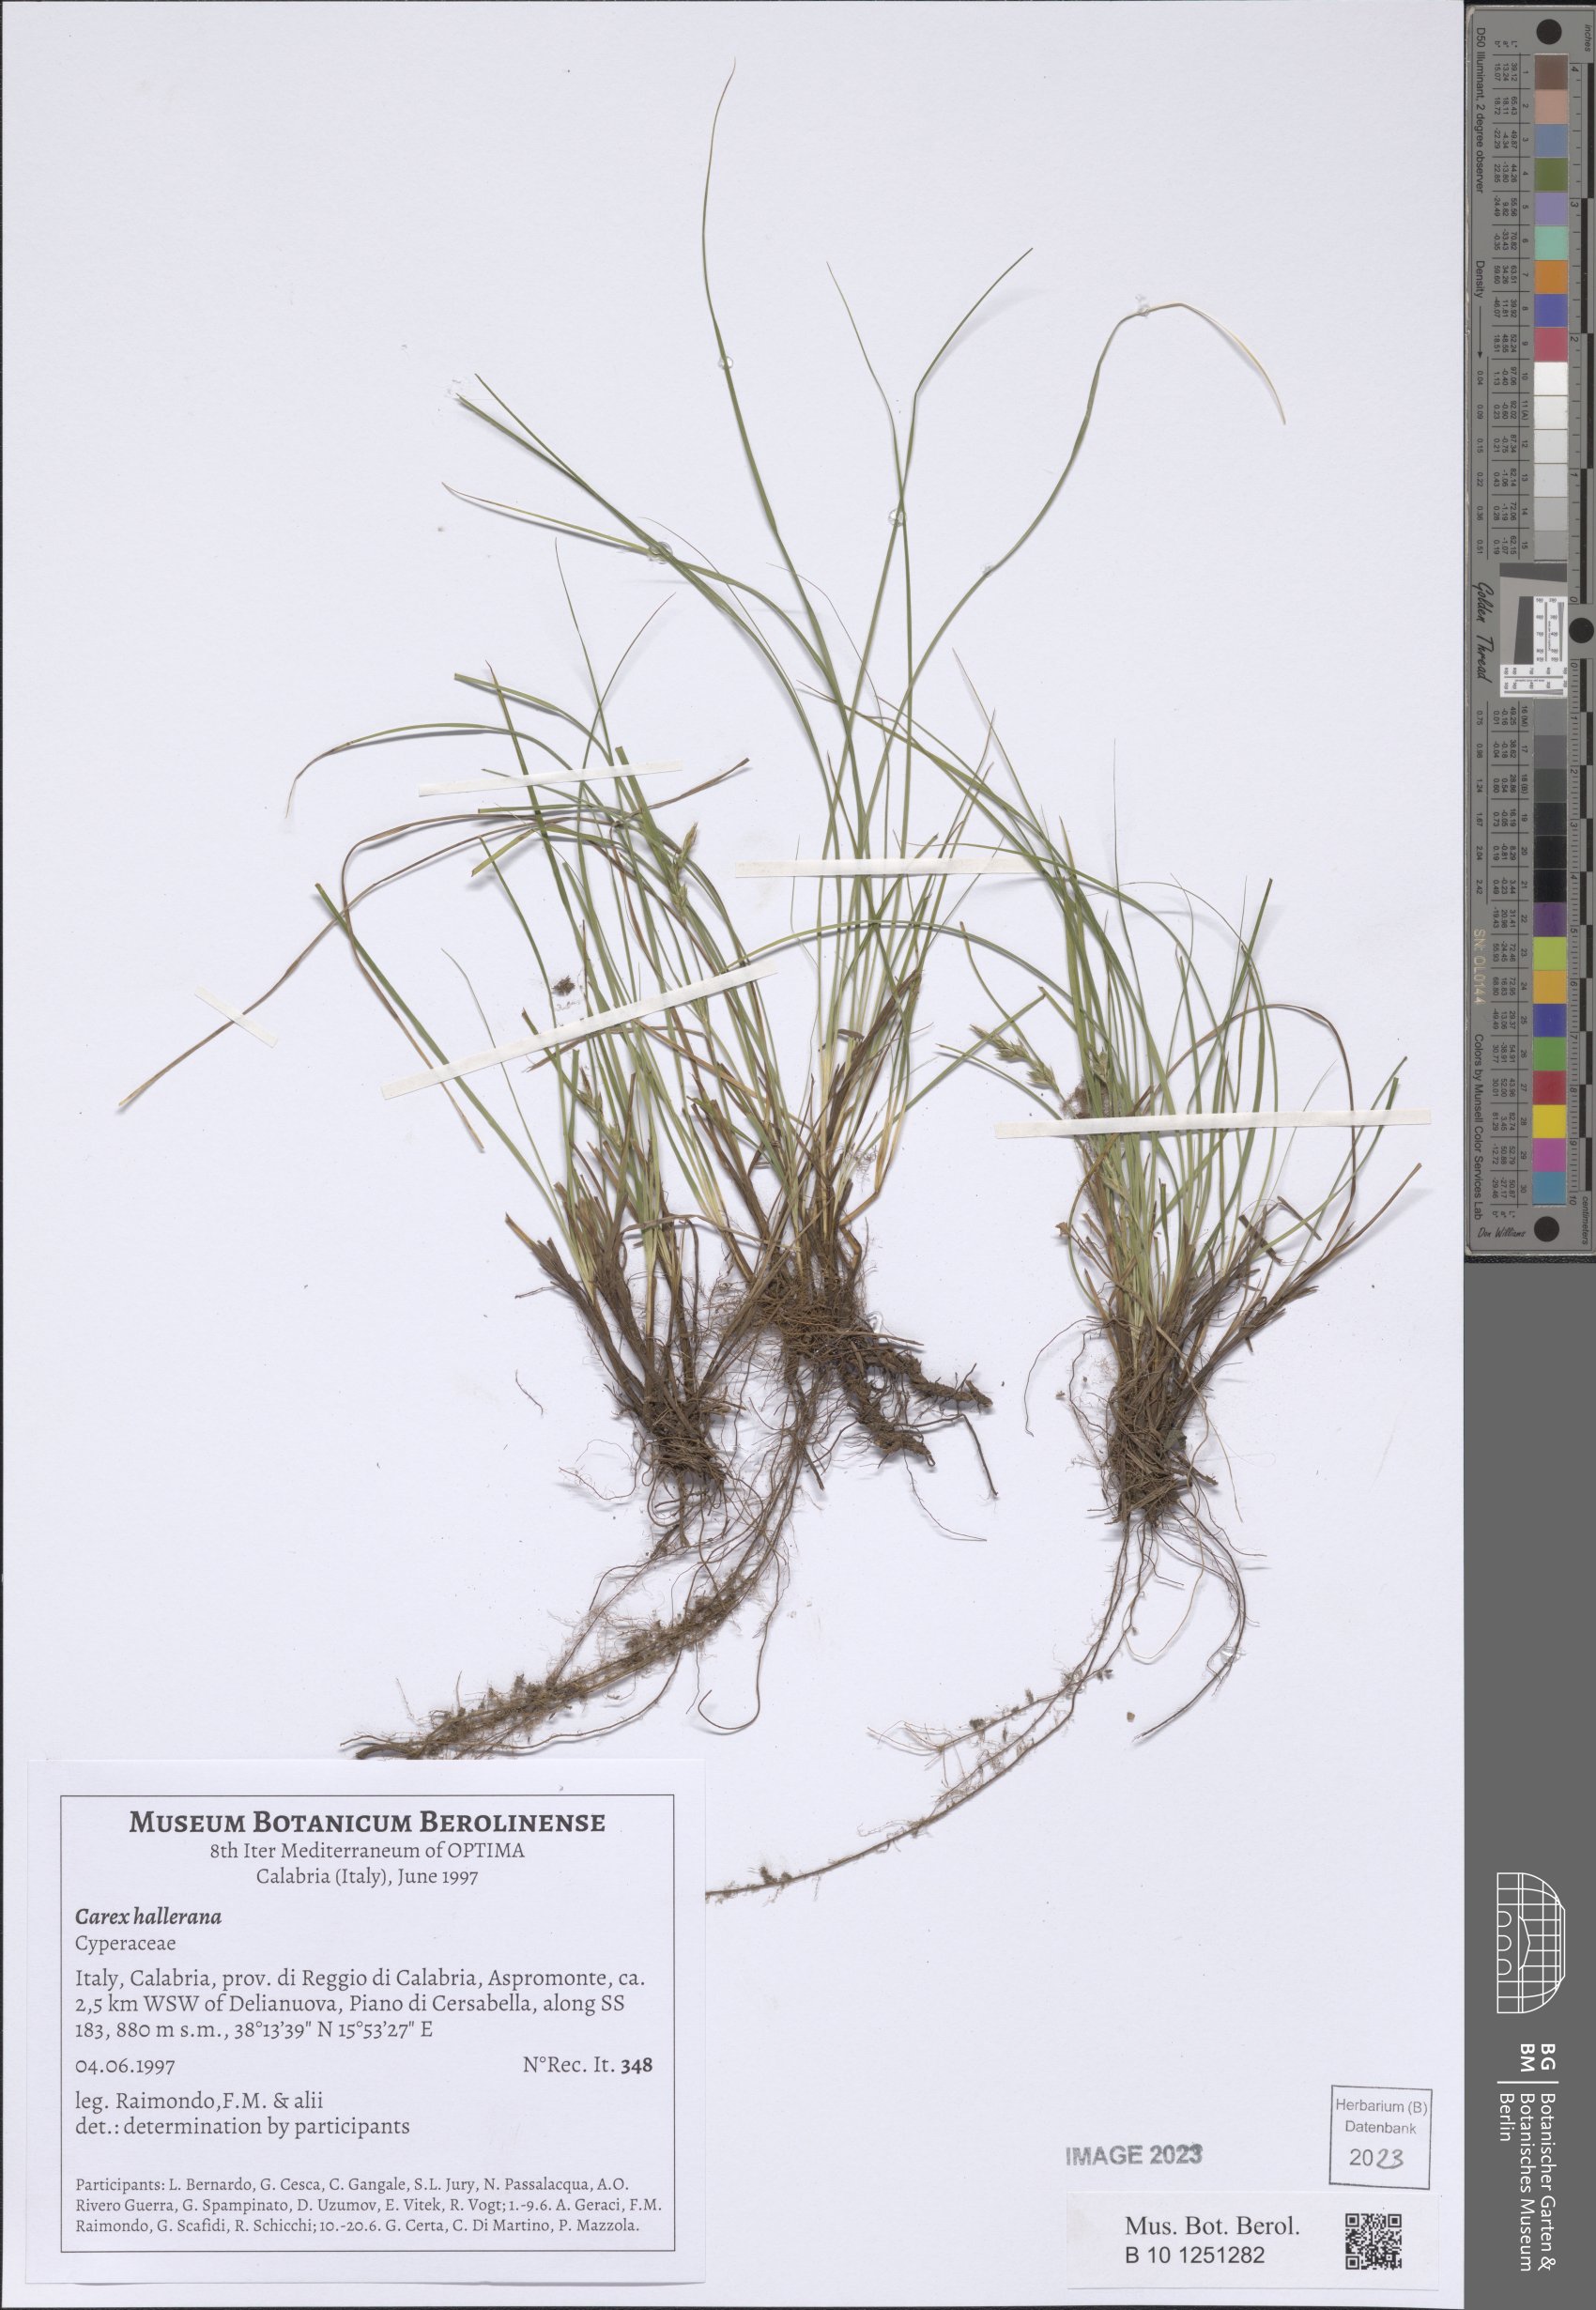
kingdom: Plantae
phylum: Tracheophyta
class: Liliopsida
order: Poales
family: Cyperaceae
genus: Carex
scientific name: Carex distachya
